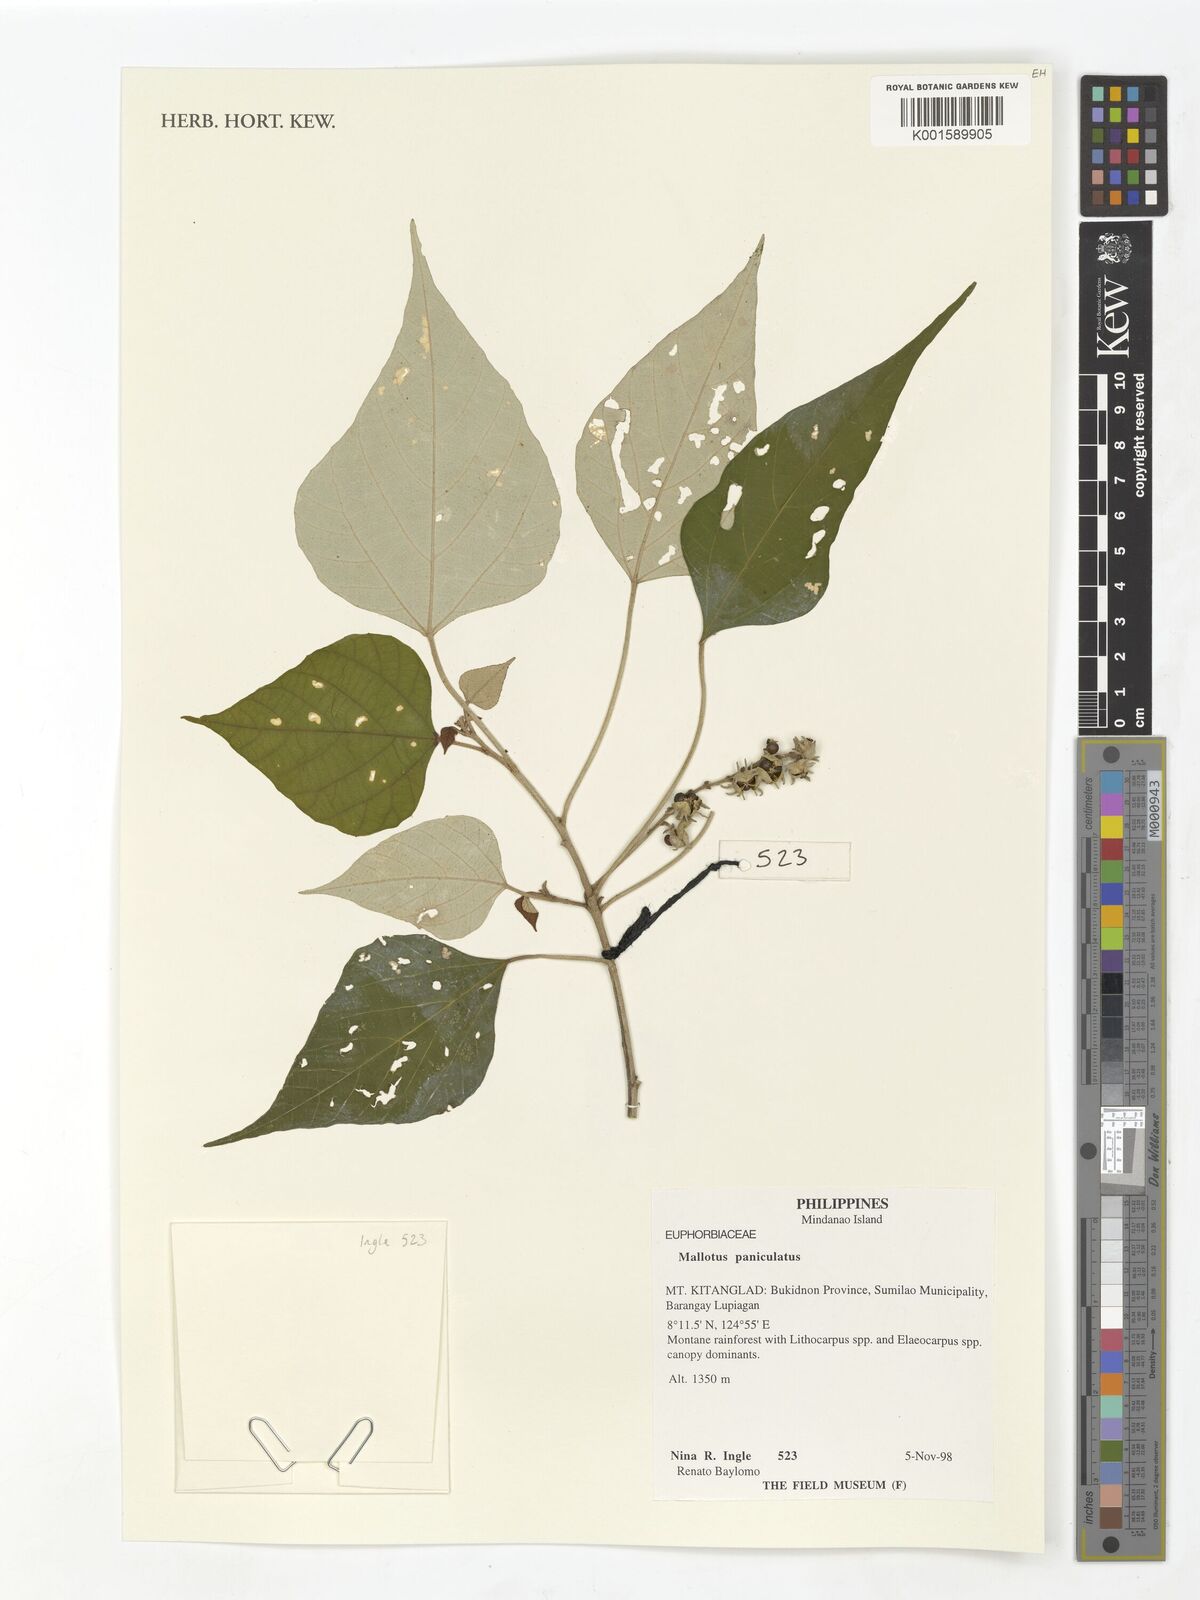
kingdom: Plantae
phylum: Tracheophyta
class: Magnoliopsida
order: Malpighiales
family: Euphorbiaceae
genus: Mallotus
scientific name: Mallotus paniculatus
